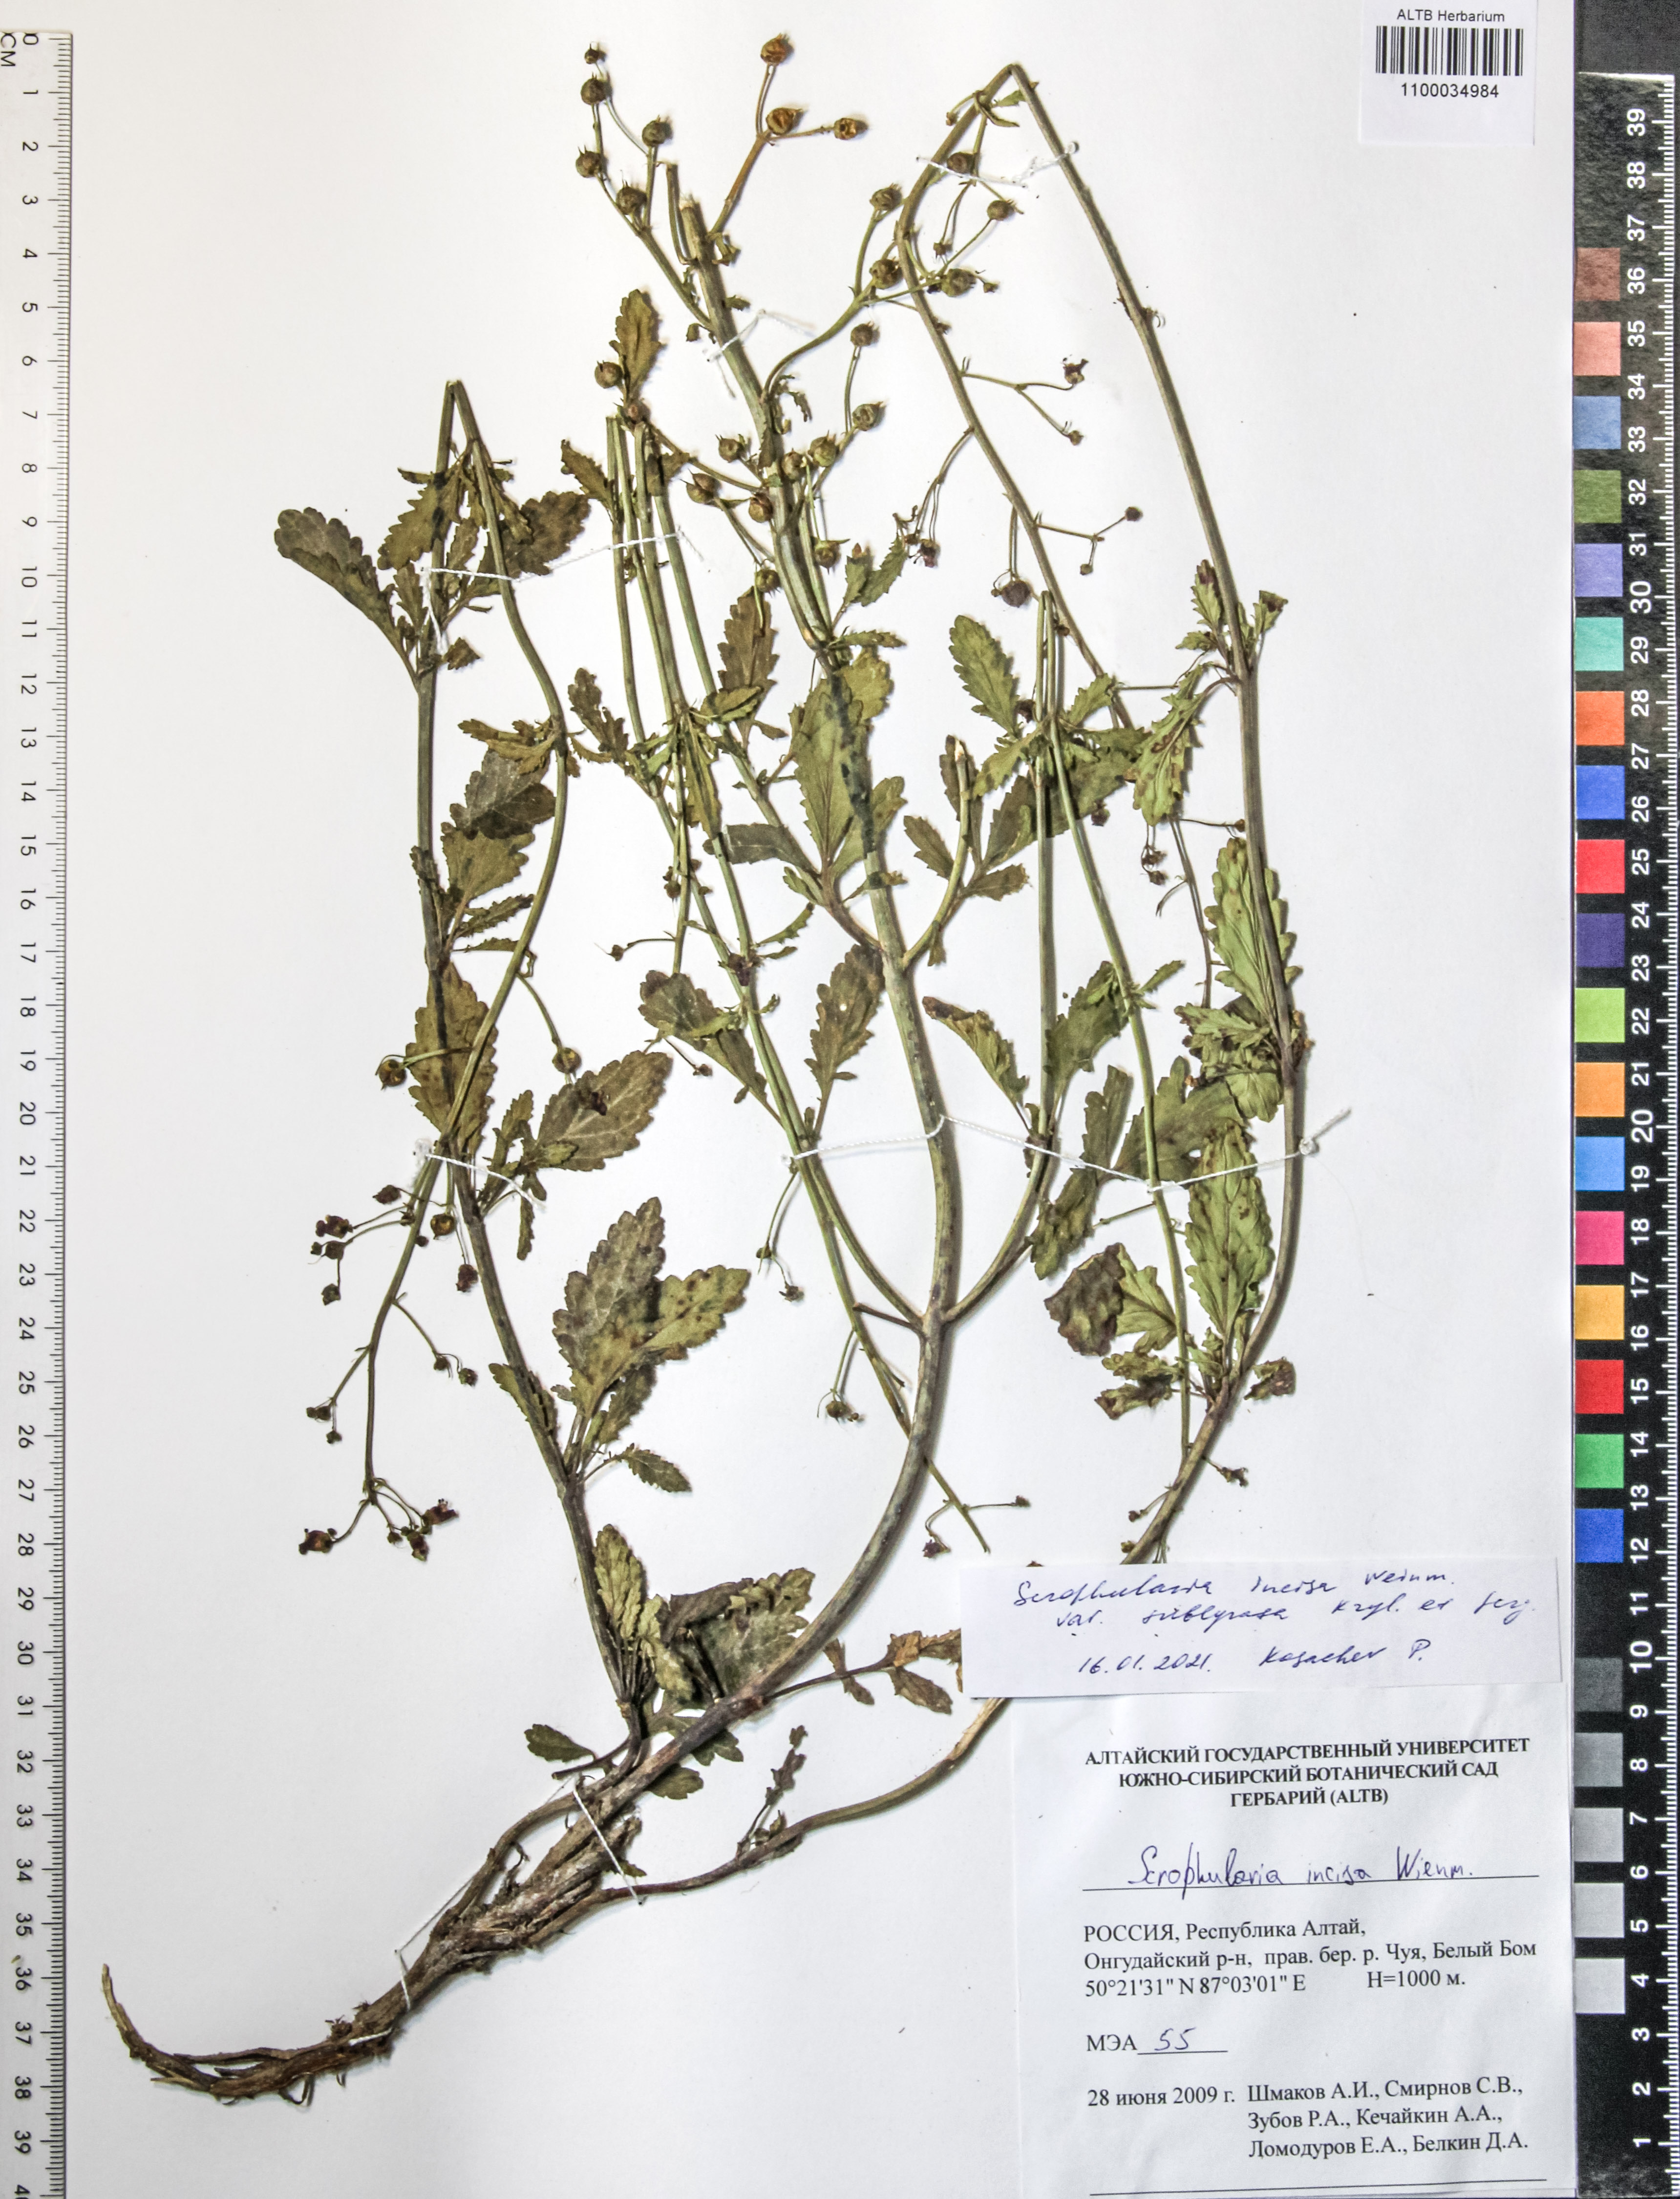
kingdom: Plantae
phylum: Tracheophyta
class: Magnoliopsida
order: Lamiales
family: Scrophulariaceae
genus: Scrophularia
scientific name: Scrophularia incisa
